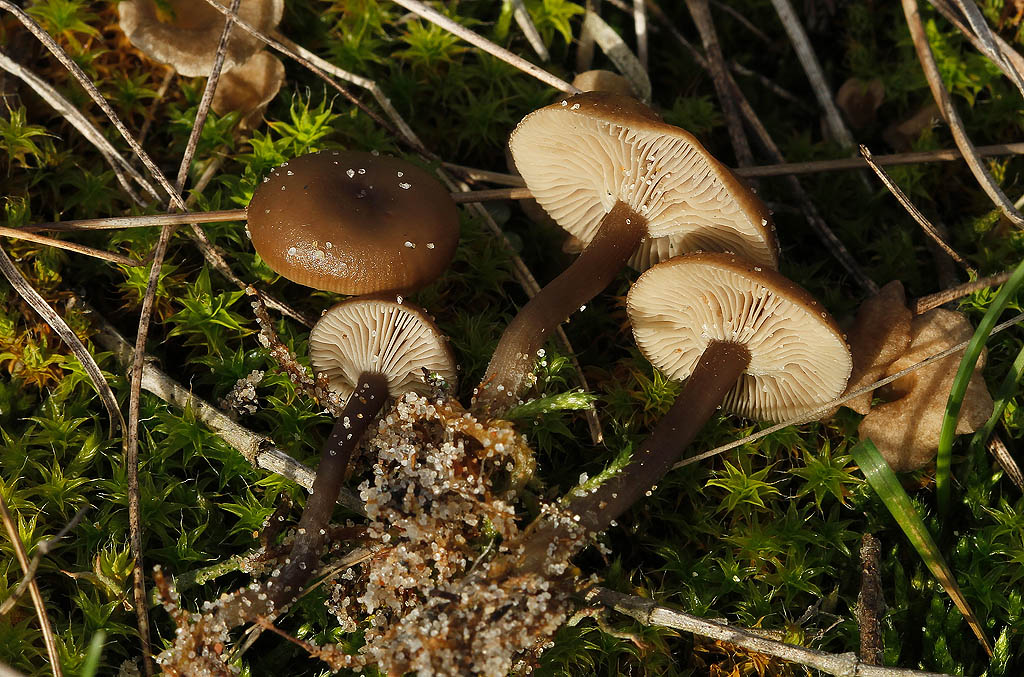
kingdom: Fungi
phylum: Basidiomycota
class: Agaricomycetes
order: Agaricales
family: Tricholomataceae
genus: Clitocybe
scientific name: Clitocybe barbularum
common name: klit-tragthat
